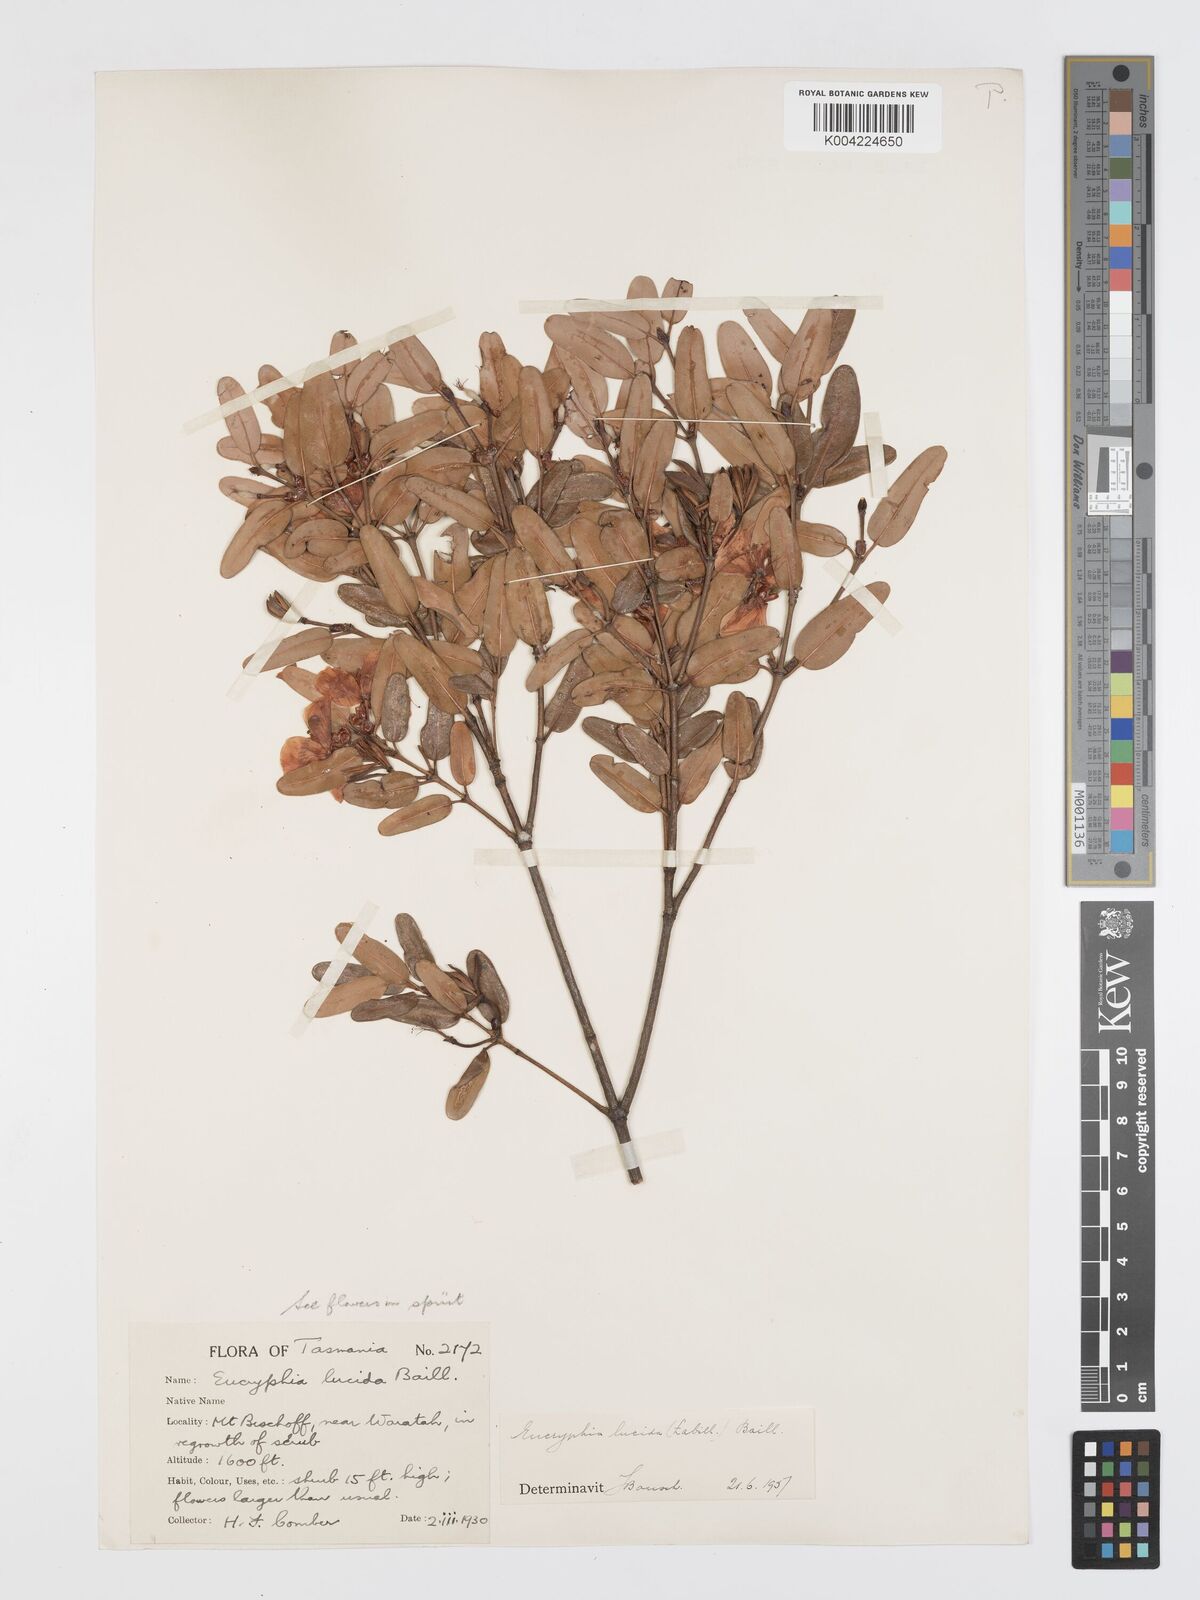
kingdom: Plantae
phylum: Tracheophyta
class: Magnoliopsida
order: Oxalidales
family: Cunoniaceae
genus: Eucryphia
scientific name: Eucryphia lucida
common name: Leatherwood
